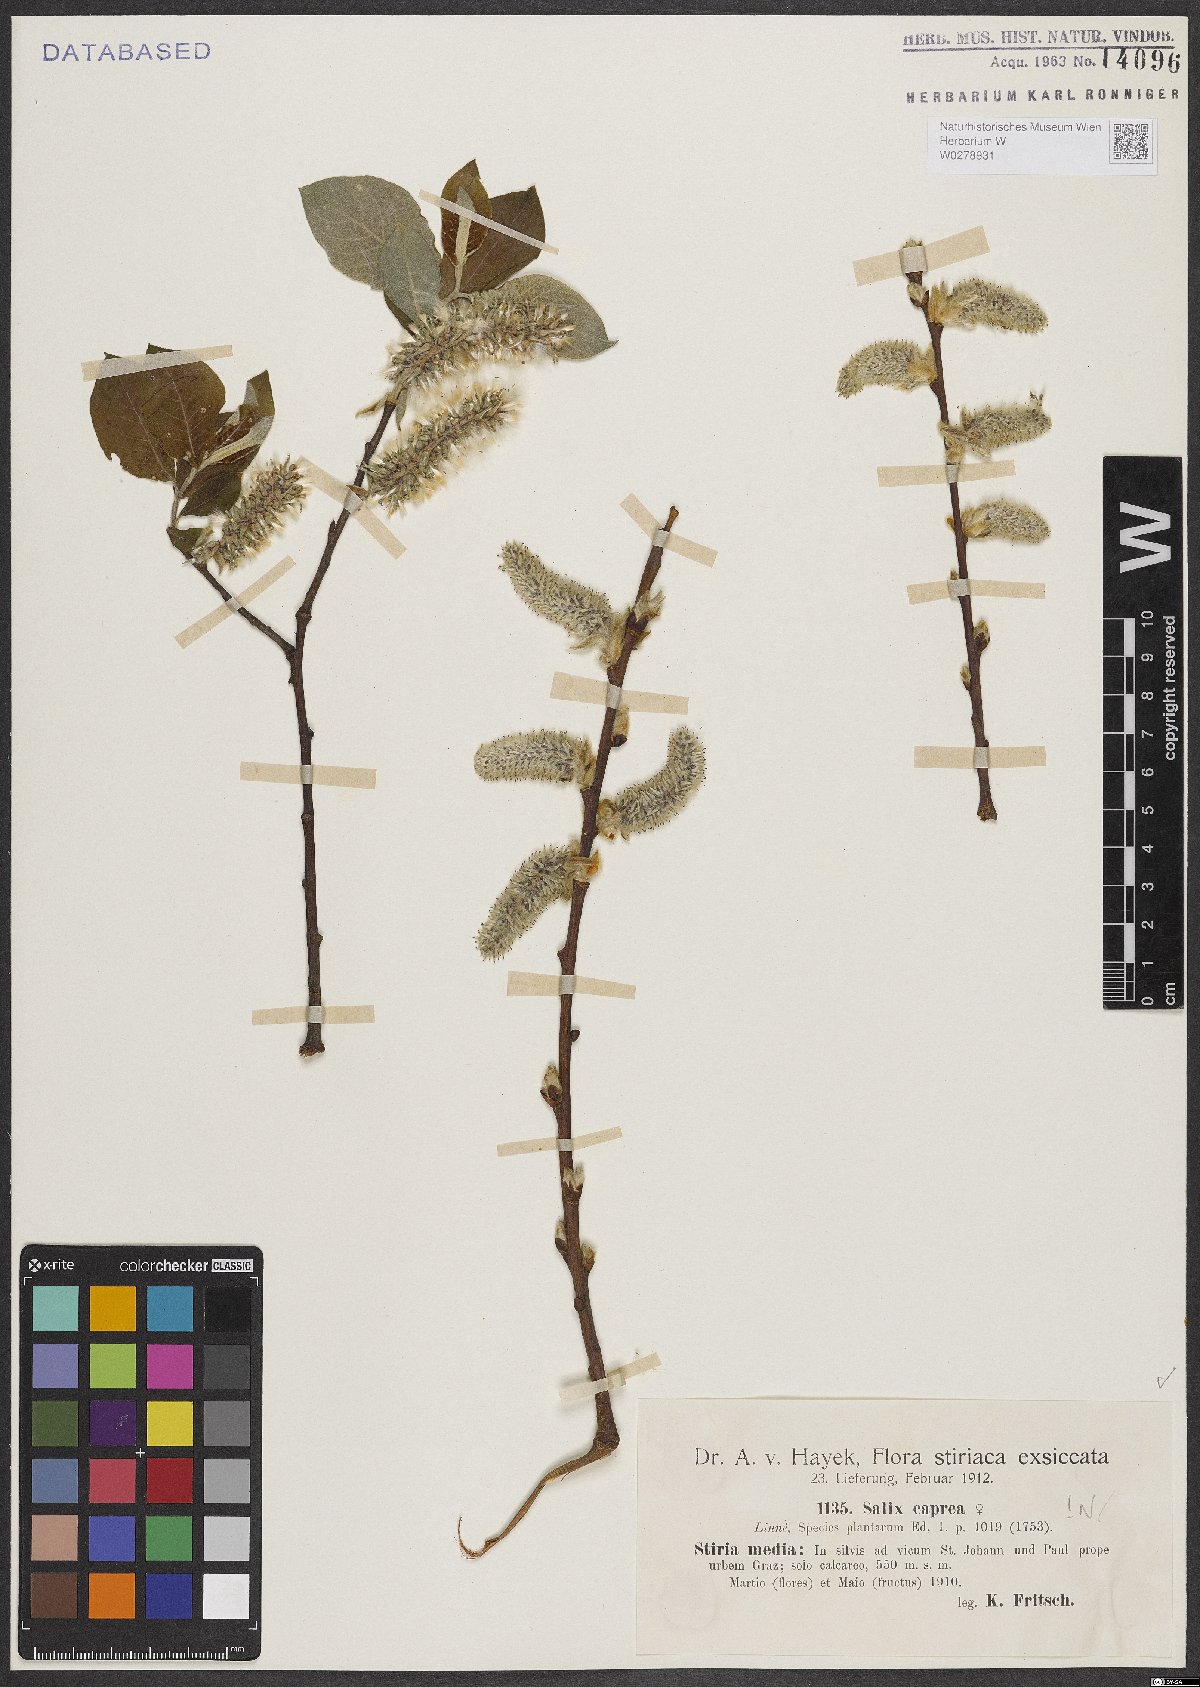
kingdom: Plantae
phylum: Tracheophyta
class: Magnoliopsida
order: Malpighiales
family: Salicaceae
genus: Salix
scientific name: Salix caprea
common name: Goat willow
